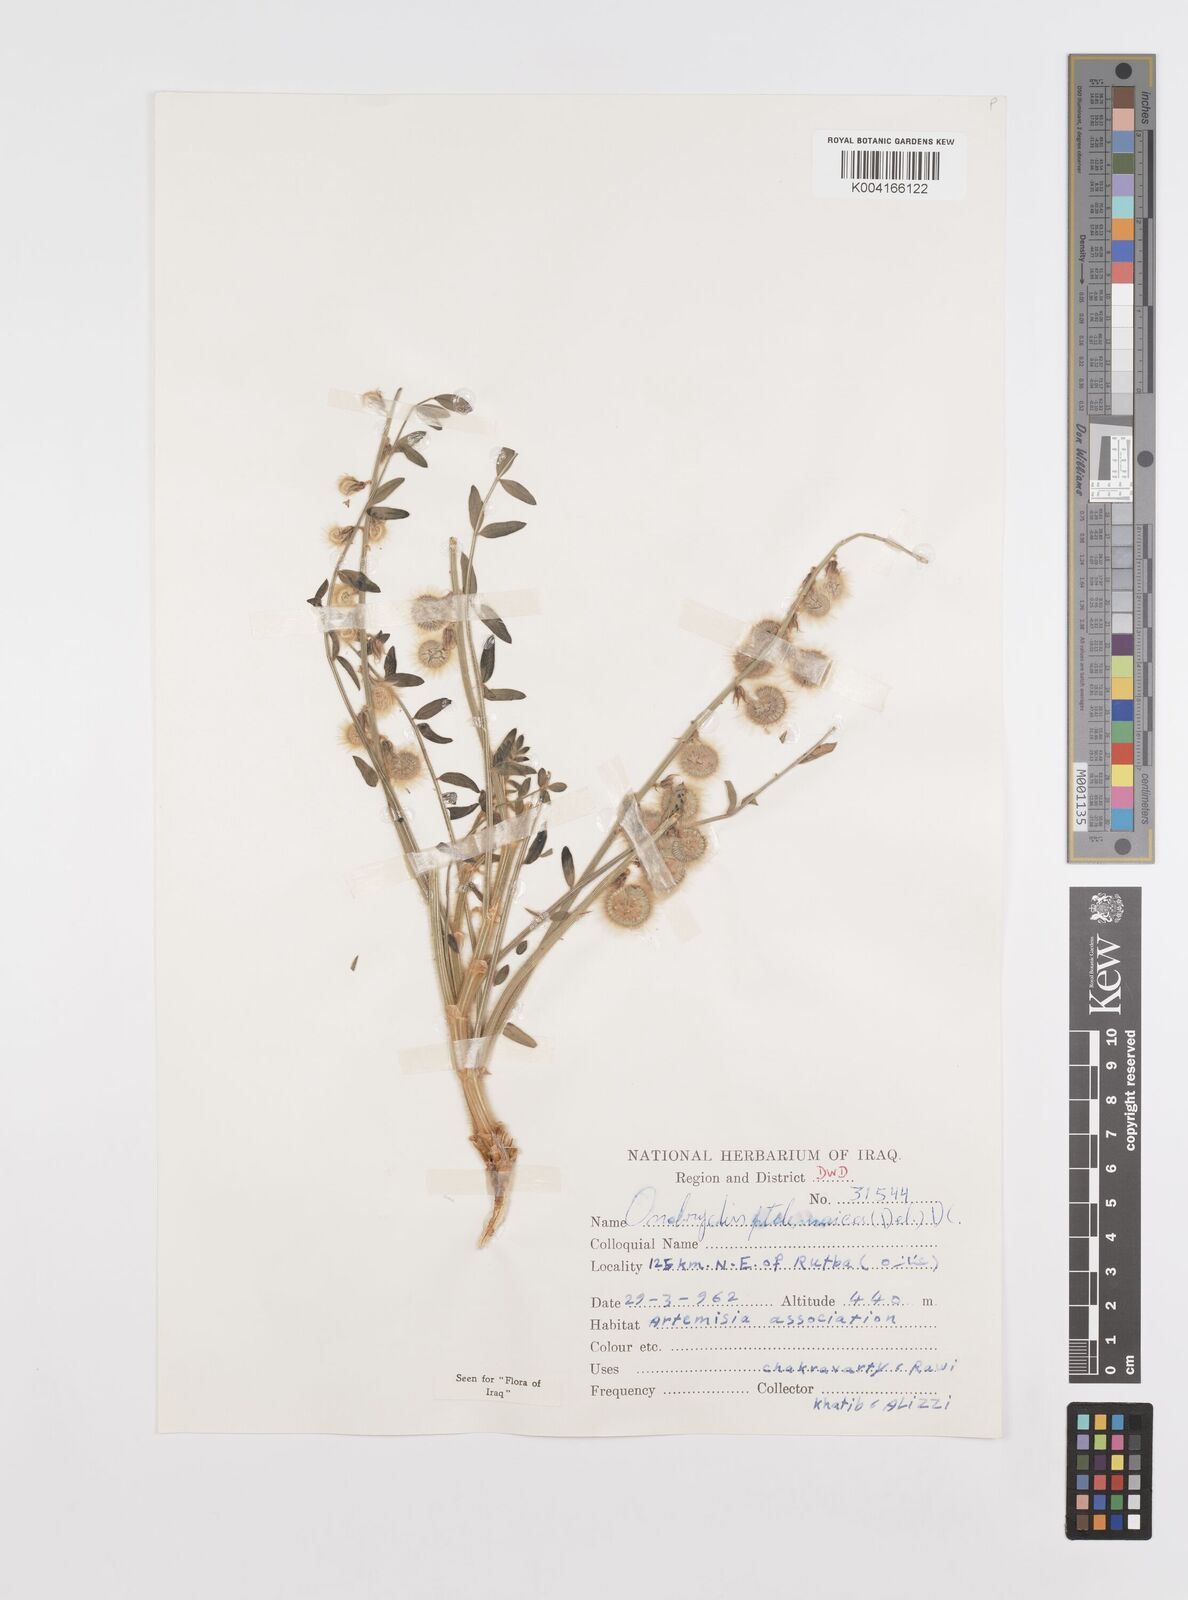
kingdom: Plantae
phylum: Tracheophyta
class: Magnoliopsida
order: Fabales
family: Fabaceae
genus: Onobrychis
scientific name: Onobrychis ptolemaica
